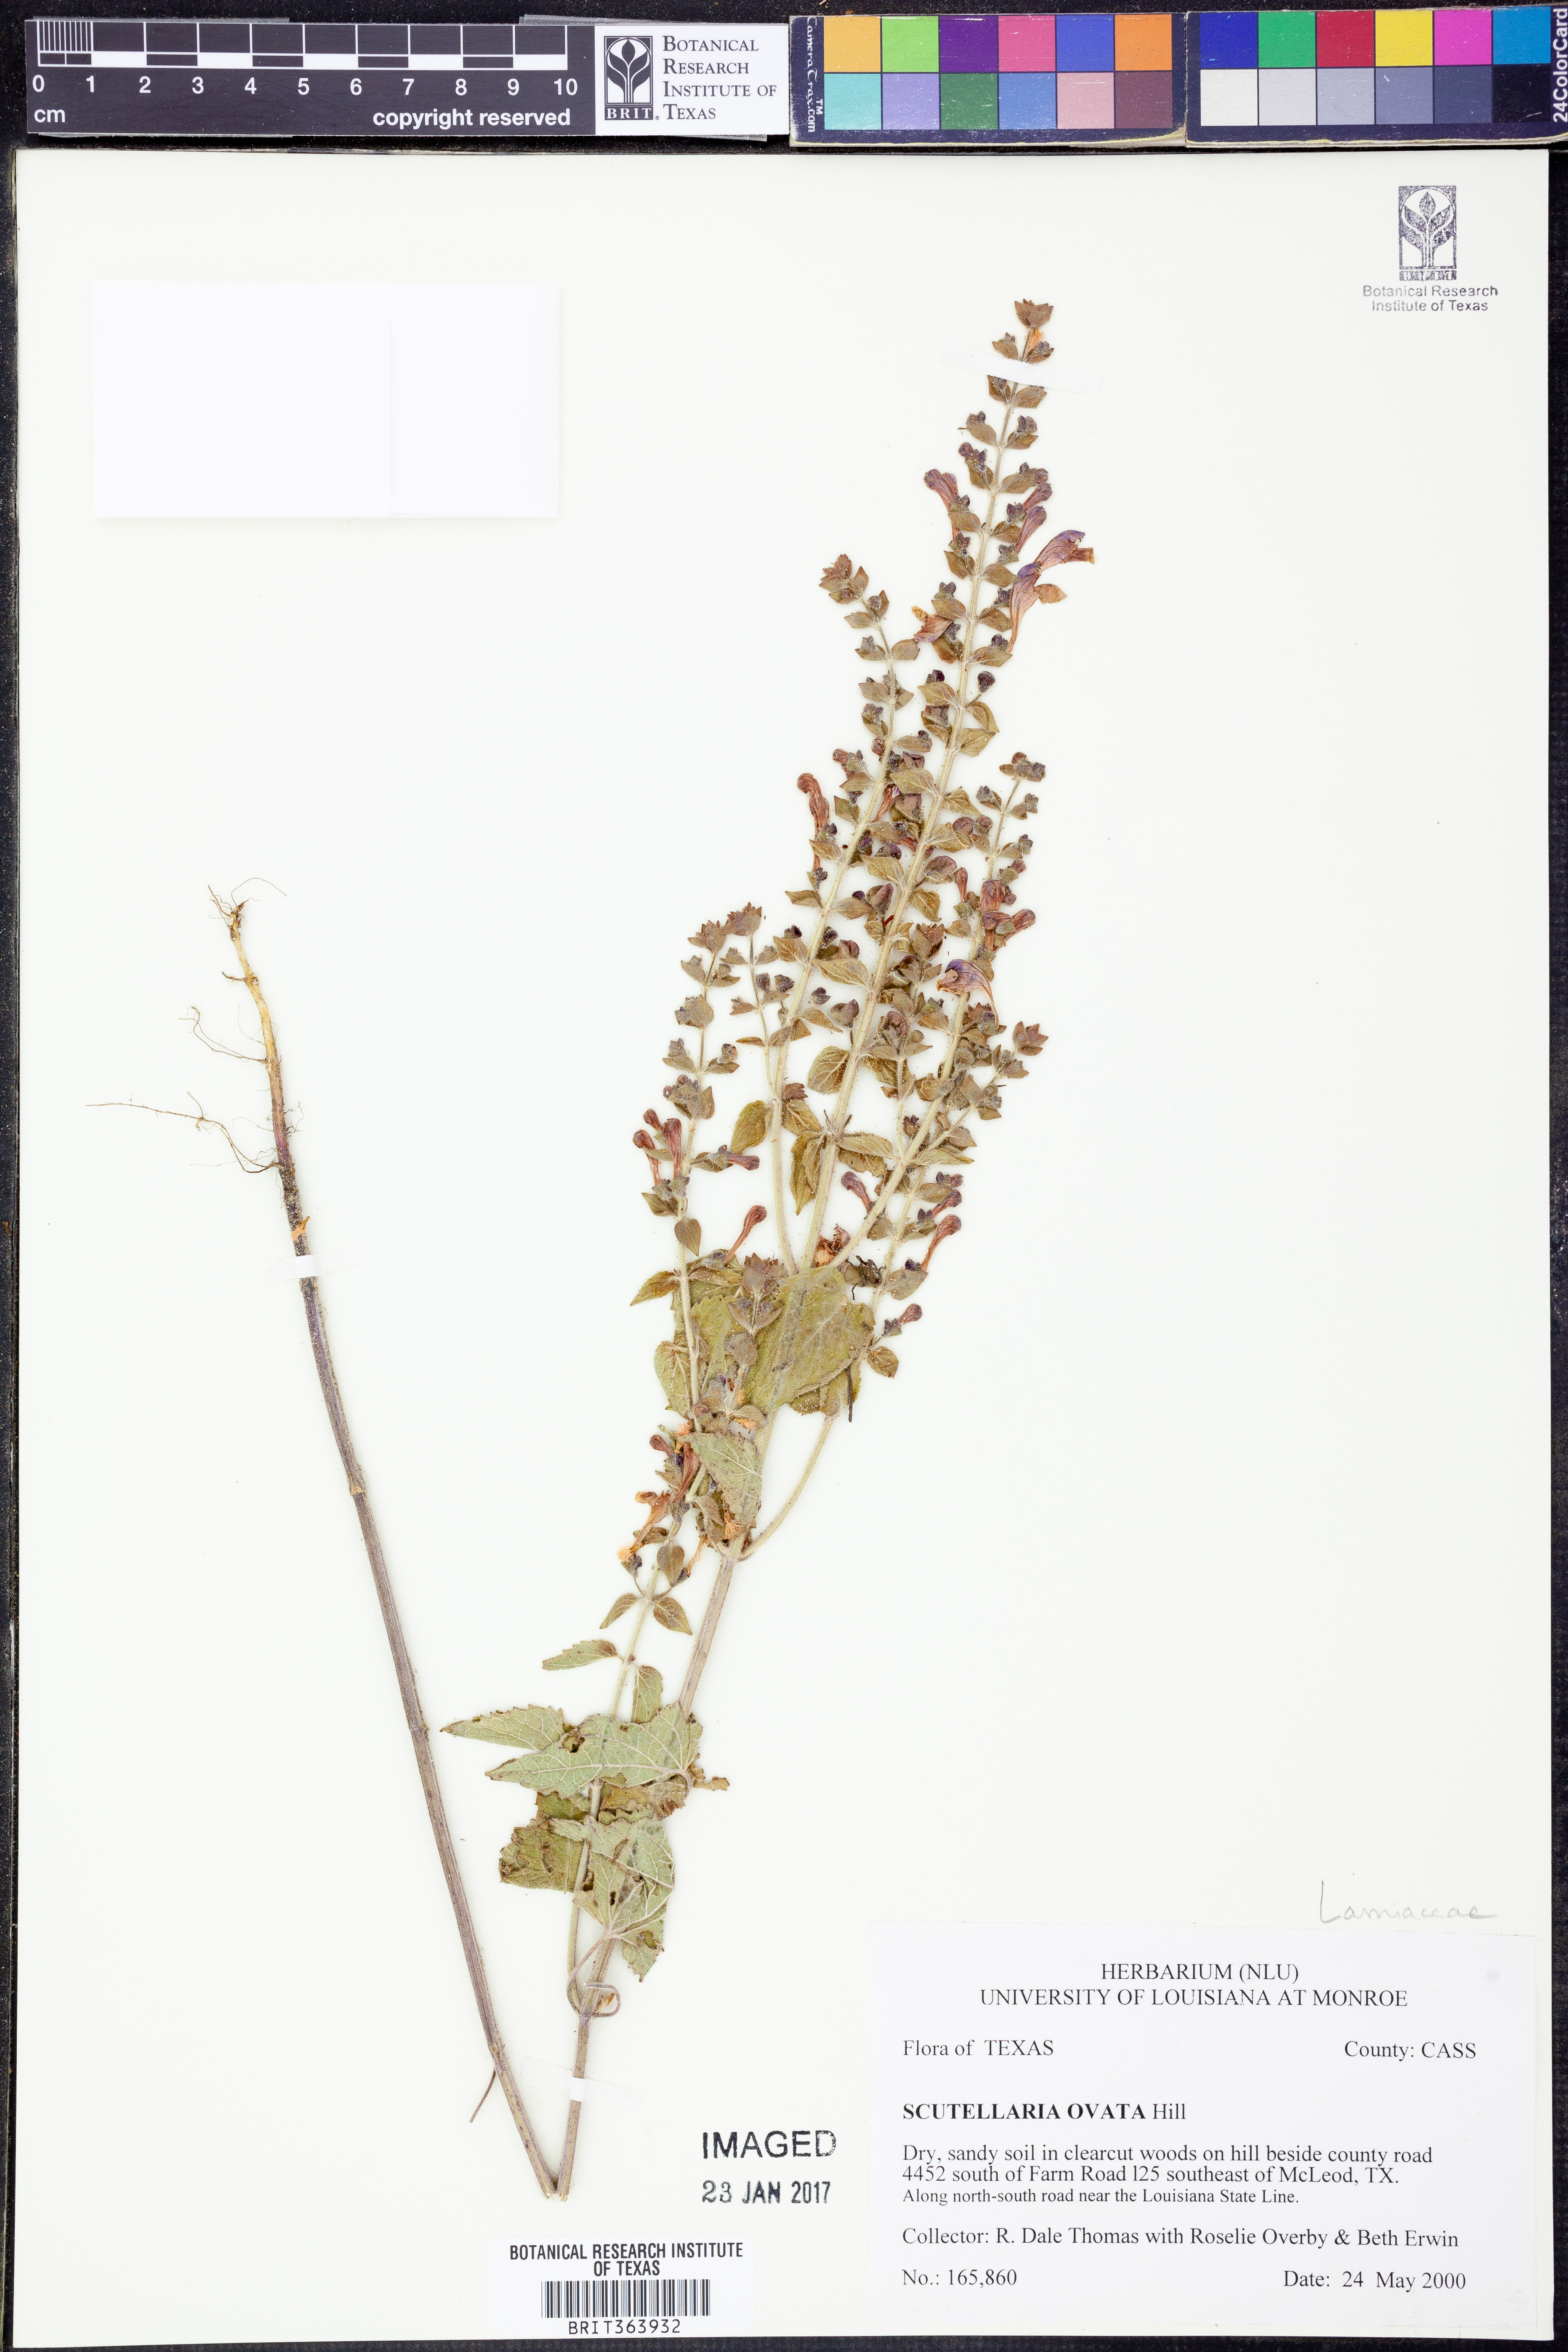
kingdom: Plantae
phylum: Tracheophyta
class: Magnoliopsida
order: Lamiales
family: Lamiaceae
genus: Scutellaria
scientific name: Scutellaria ovata
